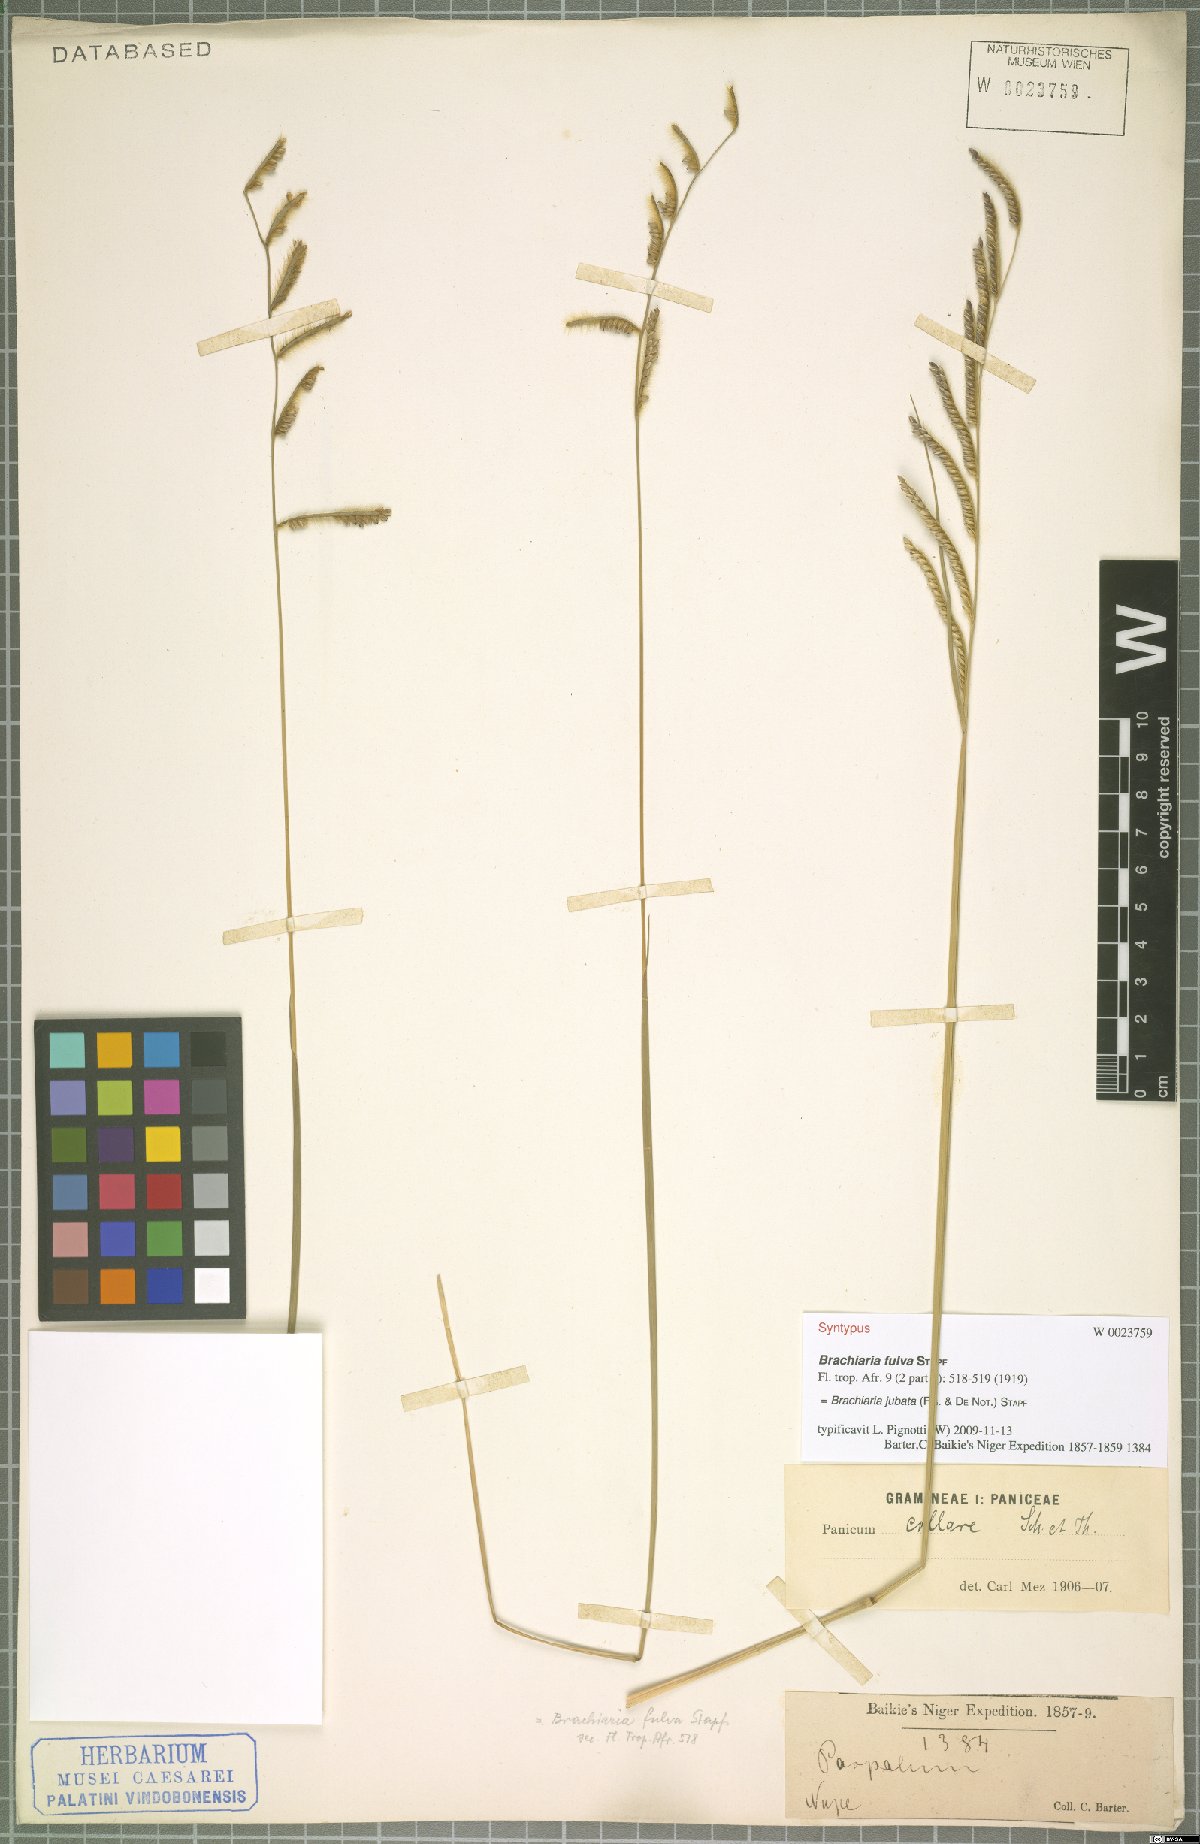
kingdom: Plantae
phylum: Tracheophyta
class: Liliopsida
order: Poales
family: Poaceae
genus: Urochloa
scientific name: Urochloa jubata
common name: Buffalograss
